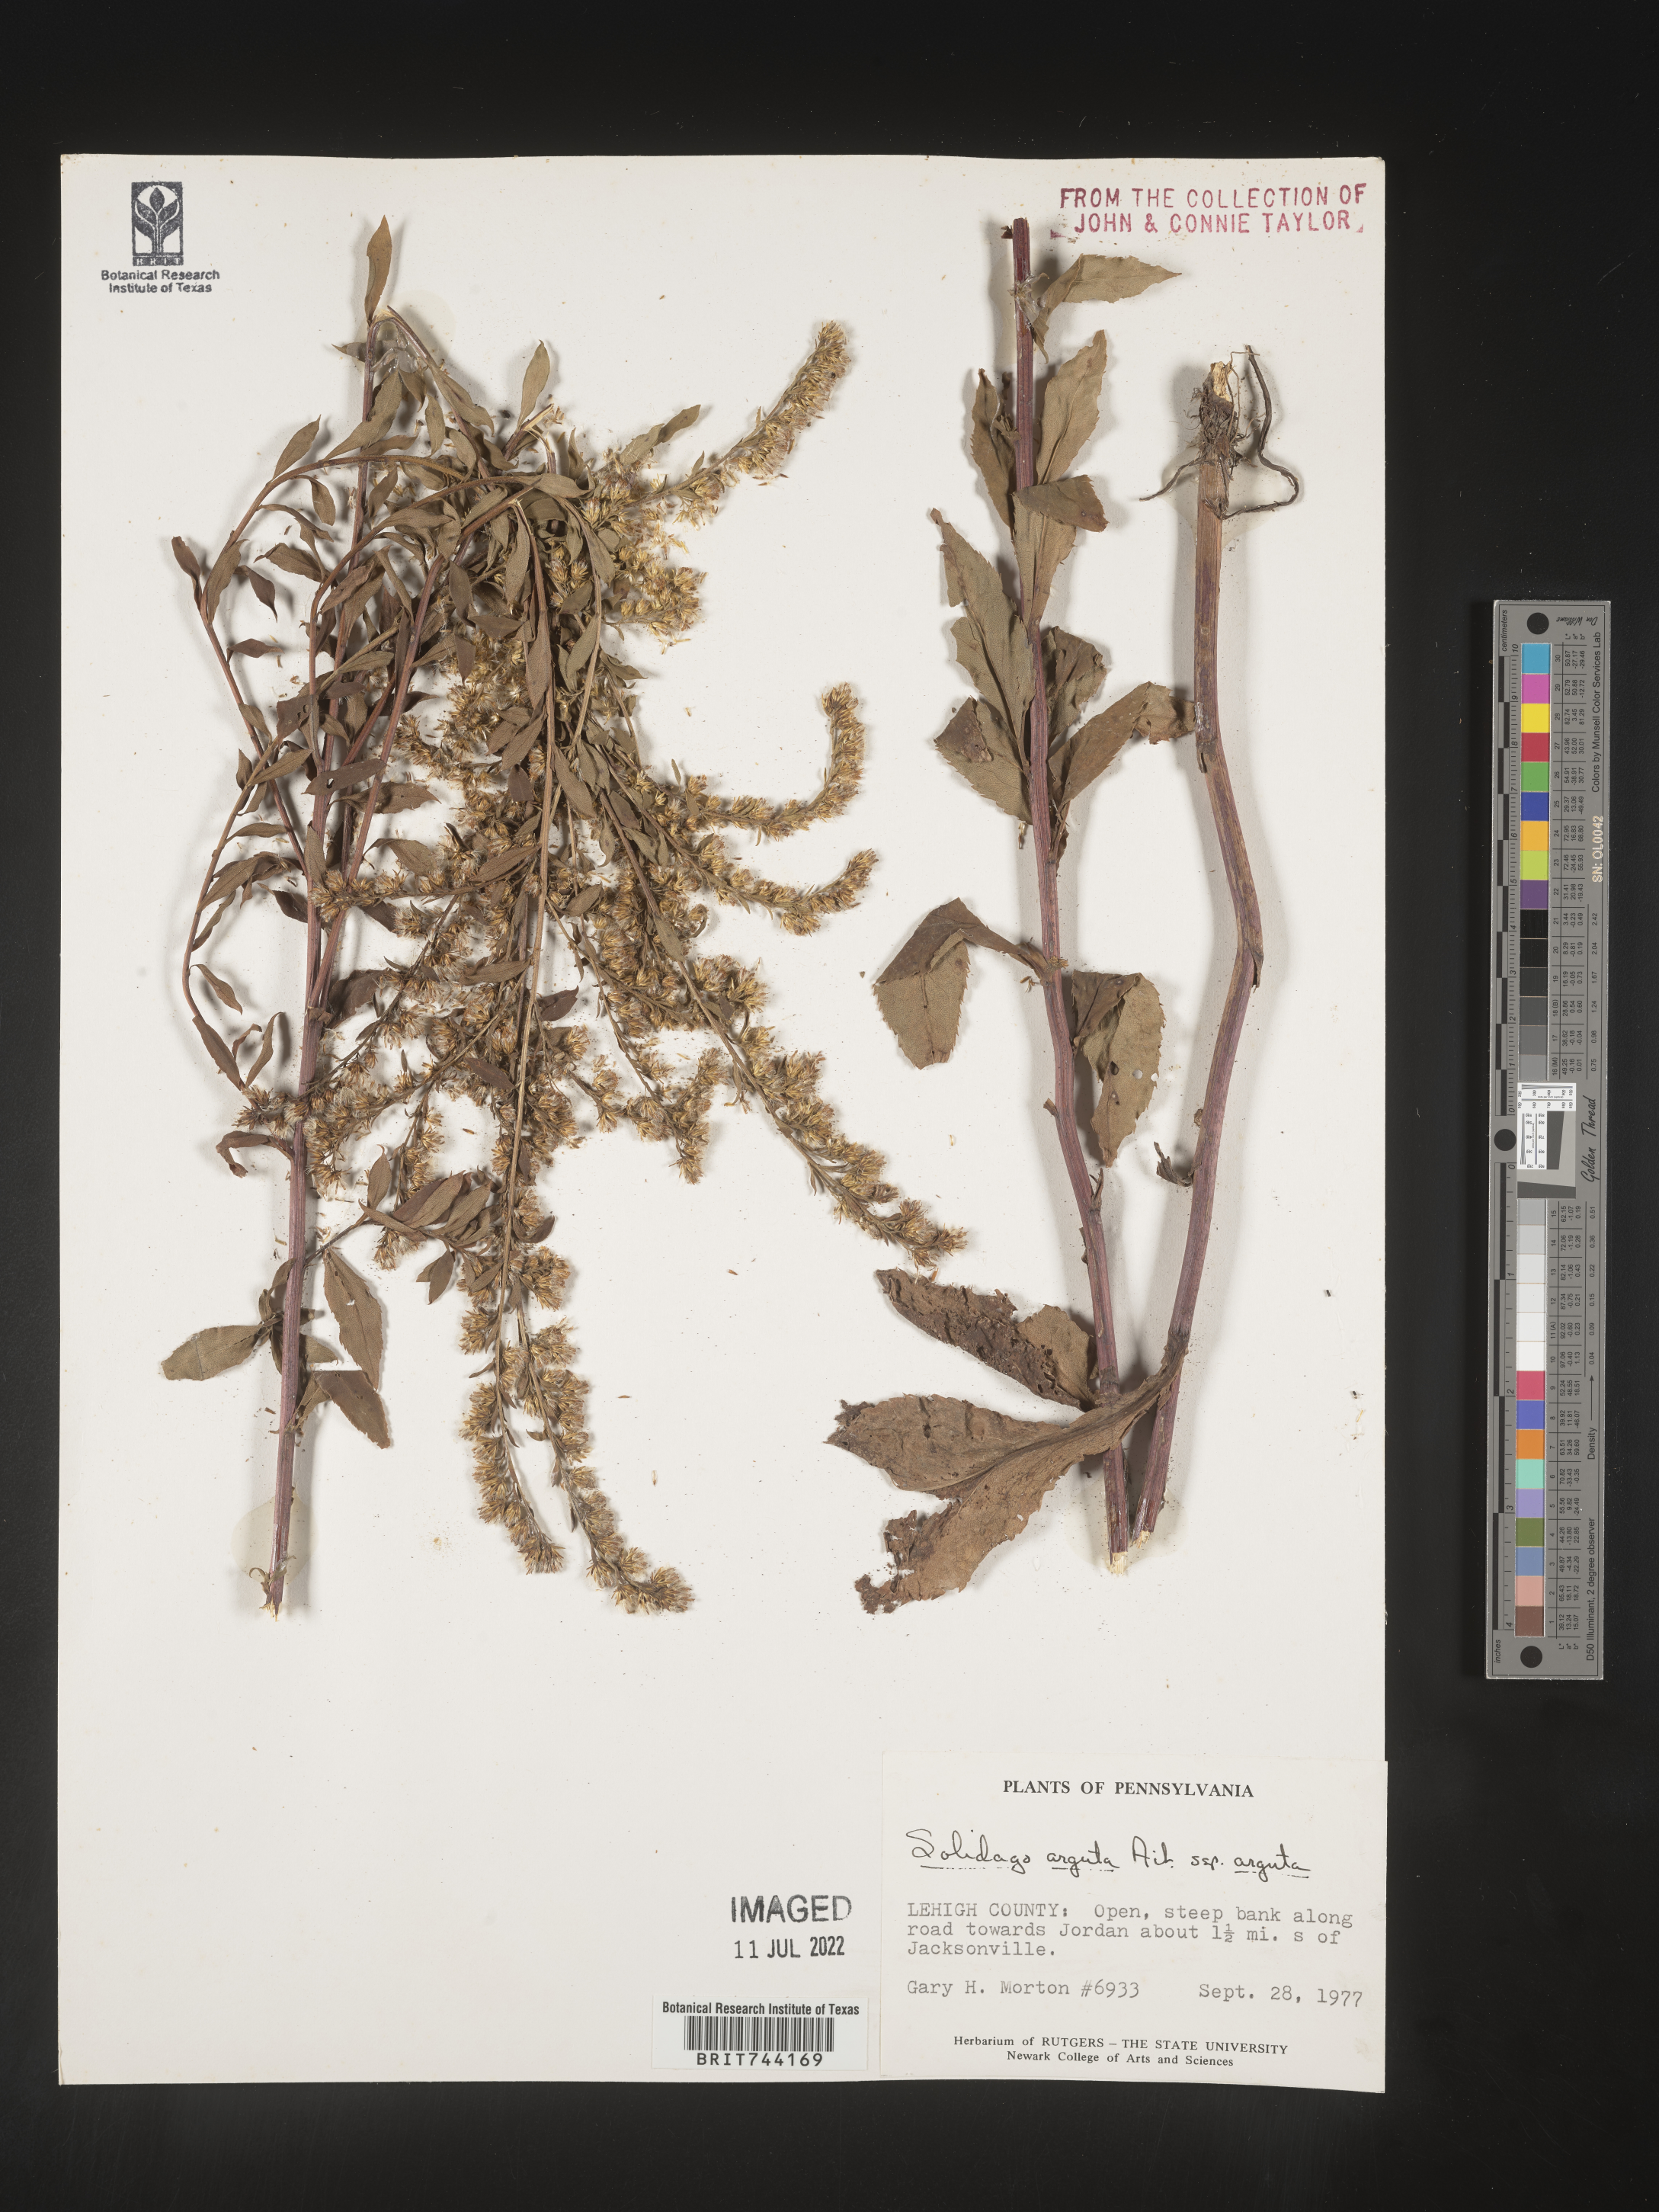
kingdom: Plantae
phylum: Tracheophyta
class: Magnoliopsida
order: Asterales
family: Asteraceae
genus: Solidago
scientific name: Solidago arguta
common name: Atlantic goldenrod
